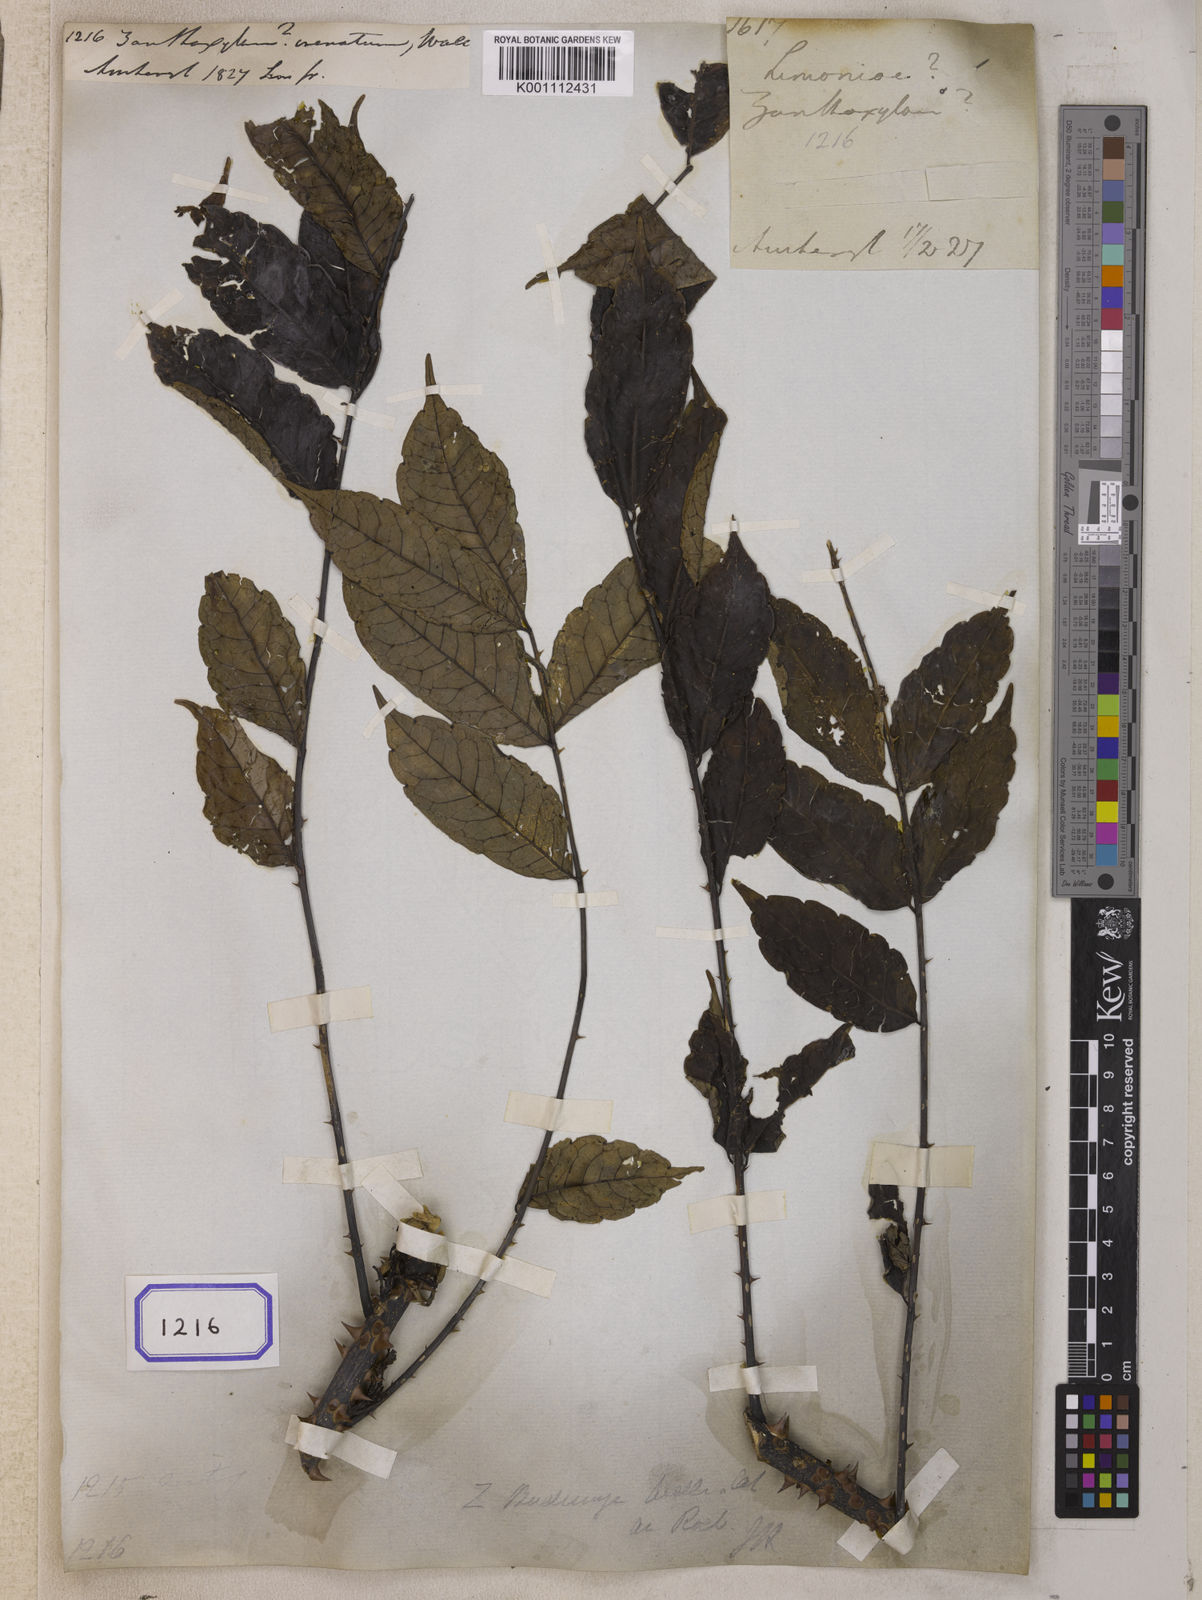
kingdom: Plantae
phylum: Tracheophyta
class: Magnoliopsida
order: Sapindales
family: Rutaceae
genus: Zanthoxylum
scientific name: Zanthoxylum rhetsa
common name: Indian ivy-rue
